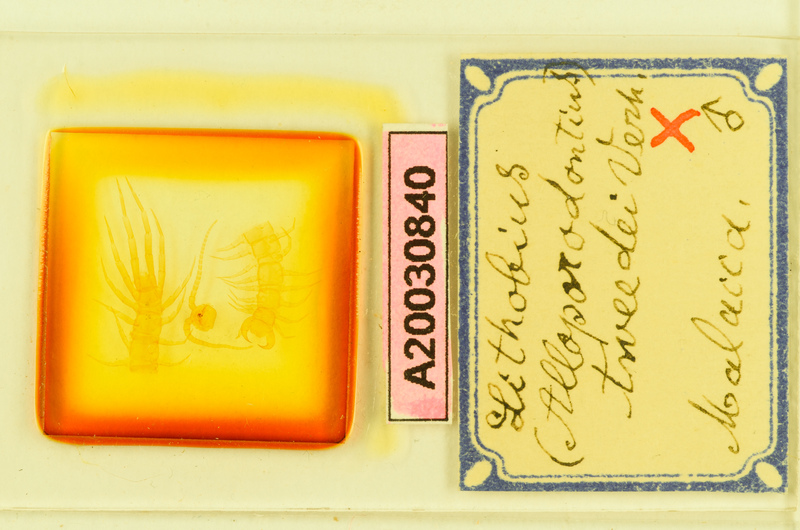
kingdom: Animalia
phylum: Arthropoda
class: Chilopoda
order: Lithobiomorpha
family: Lithobiidae
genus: Lithobius
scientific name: Lithobius
